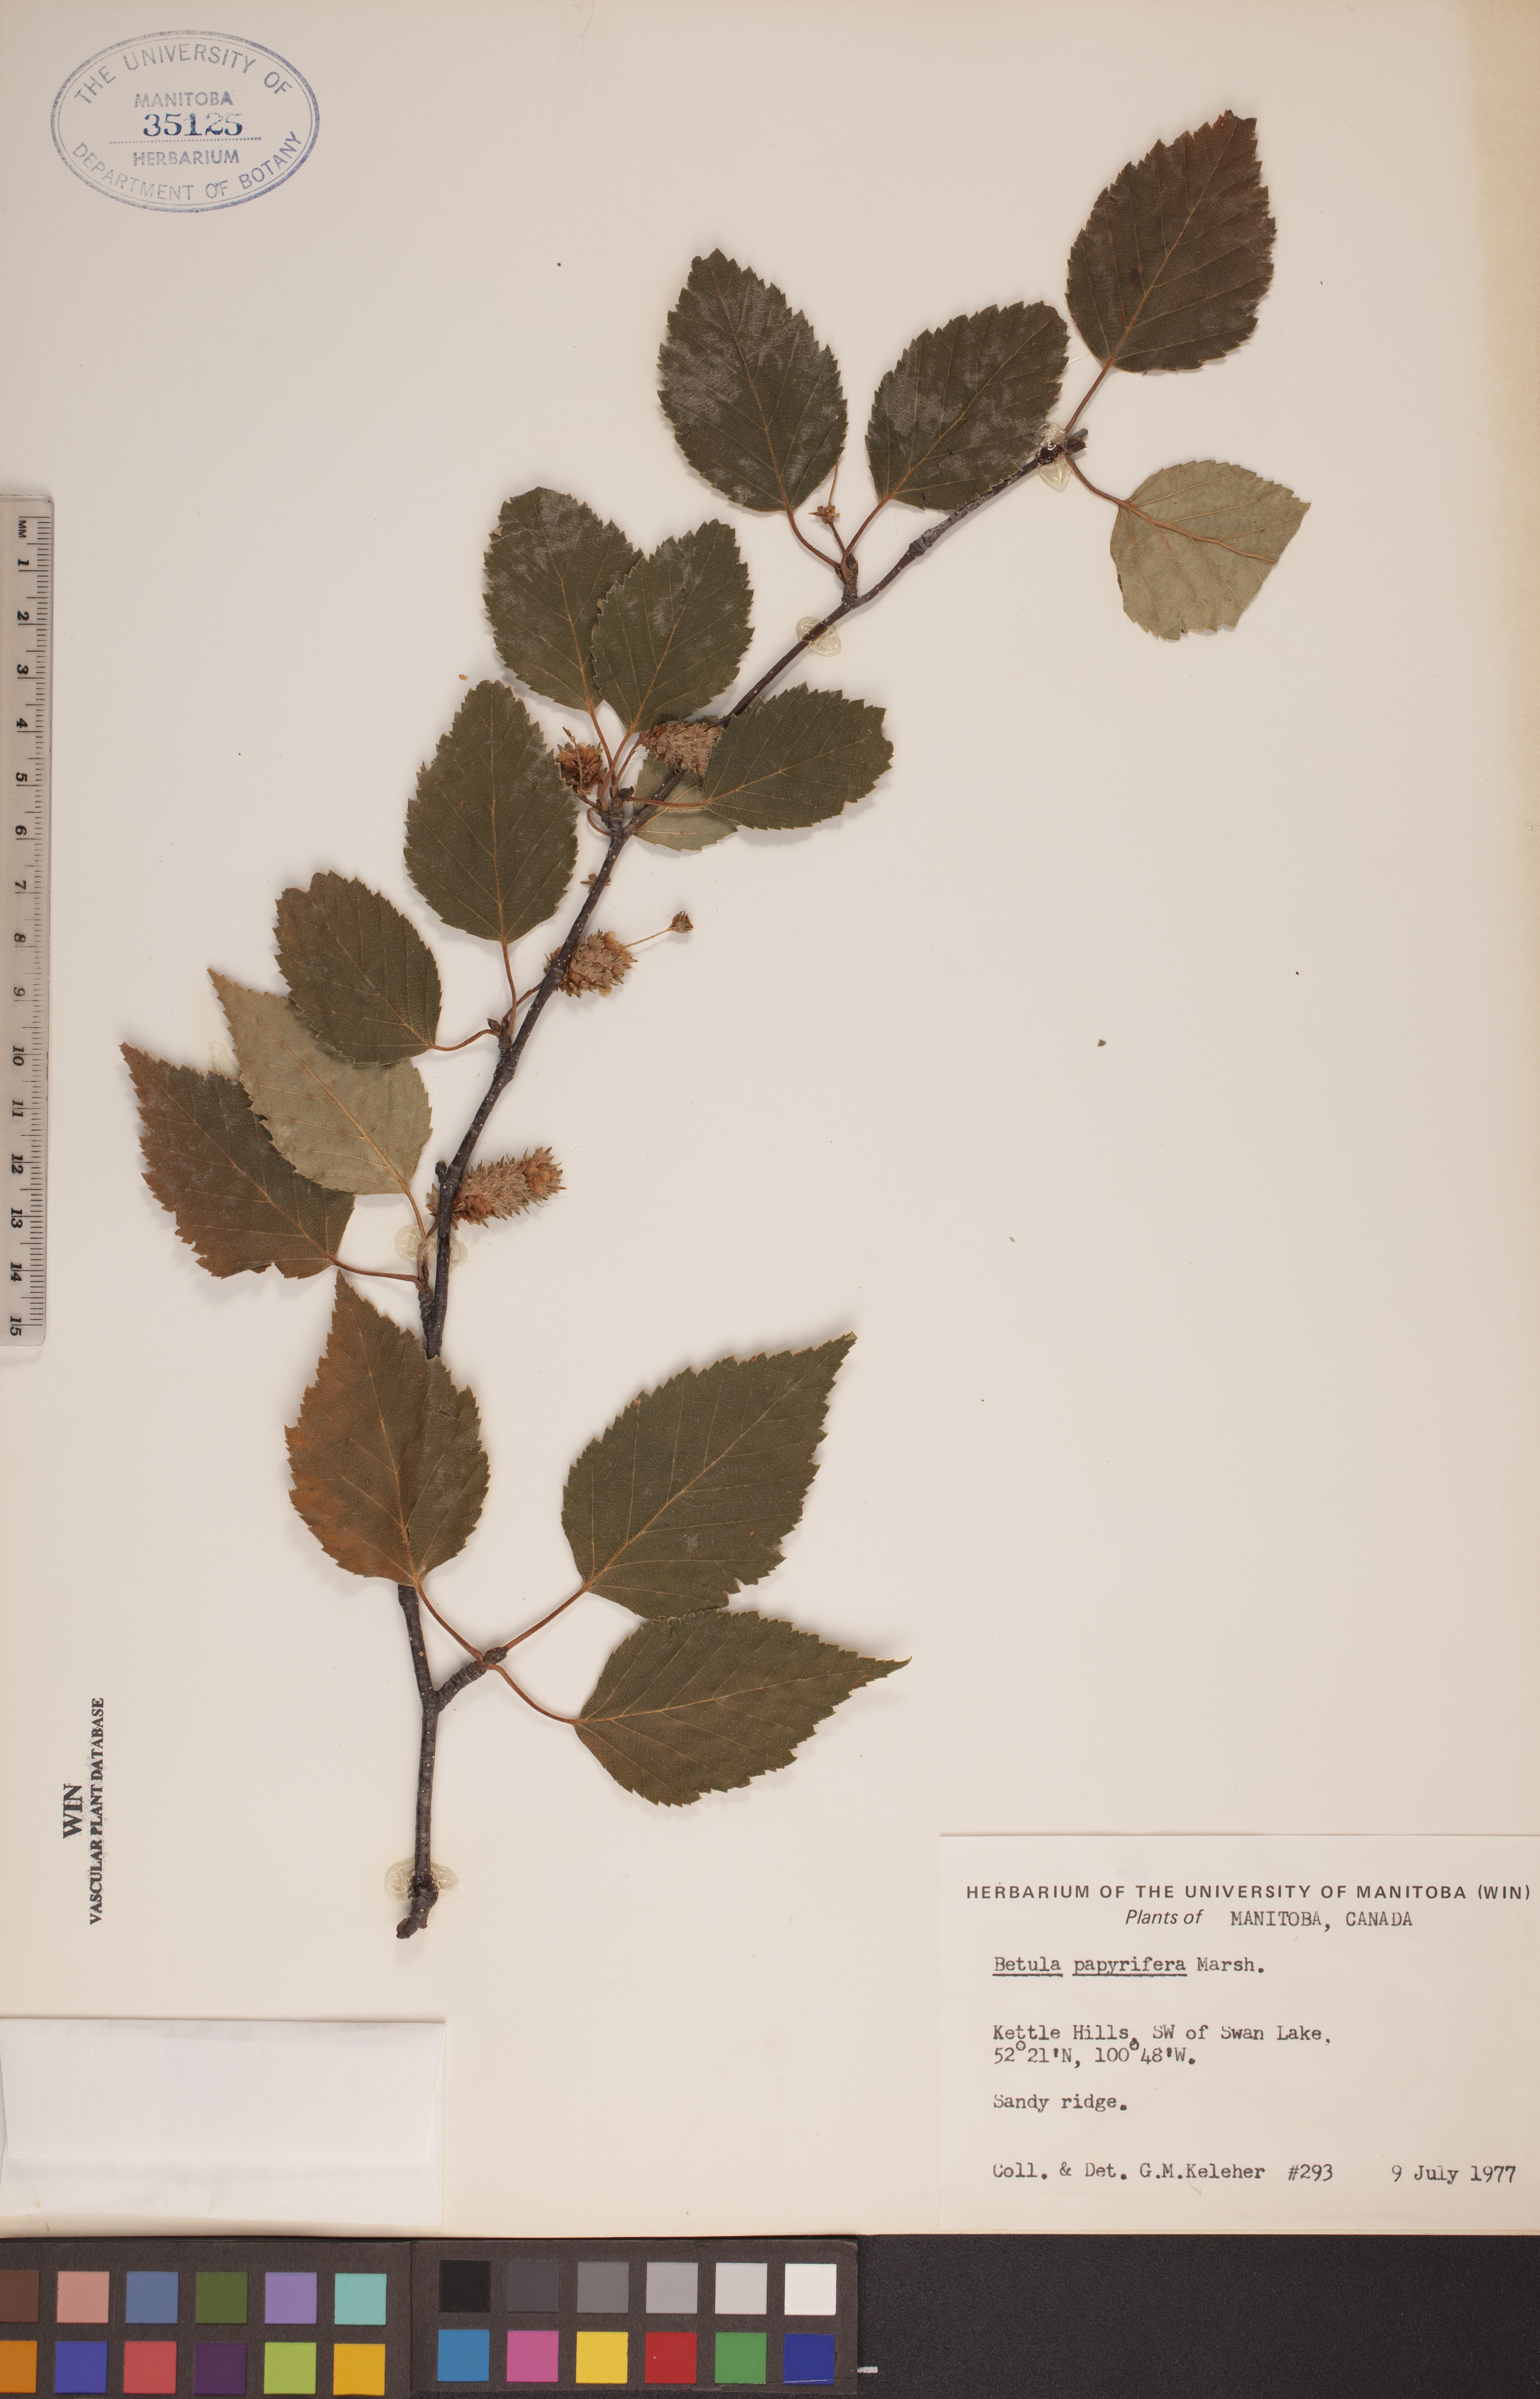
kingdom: Plantae
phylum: Tracheophyta
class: Magnoliopsida
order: Fagales
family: Betulaceae
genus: Betula
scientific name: Betula papyrifera
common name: Paper birch
